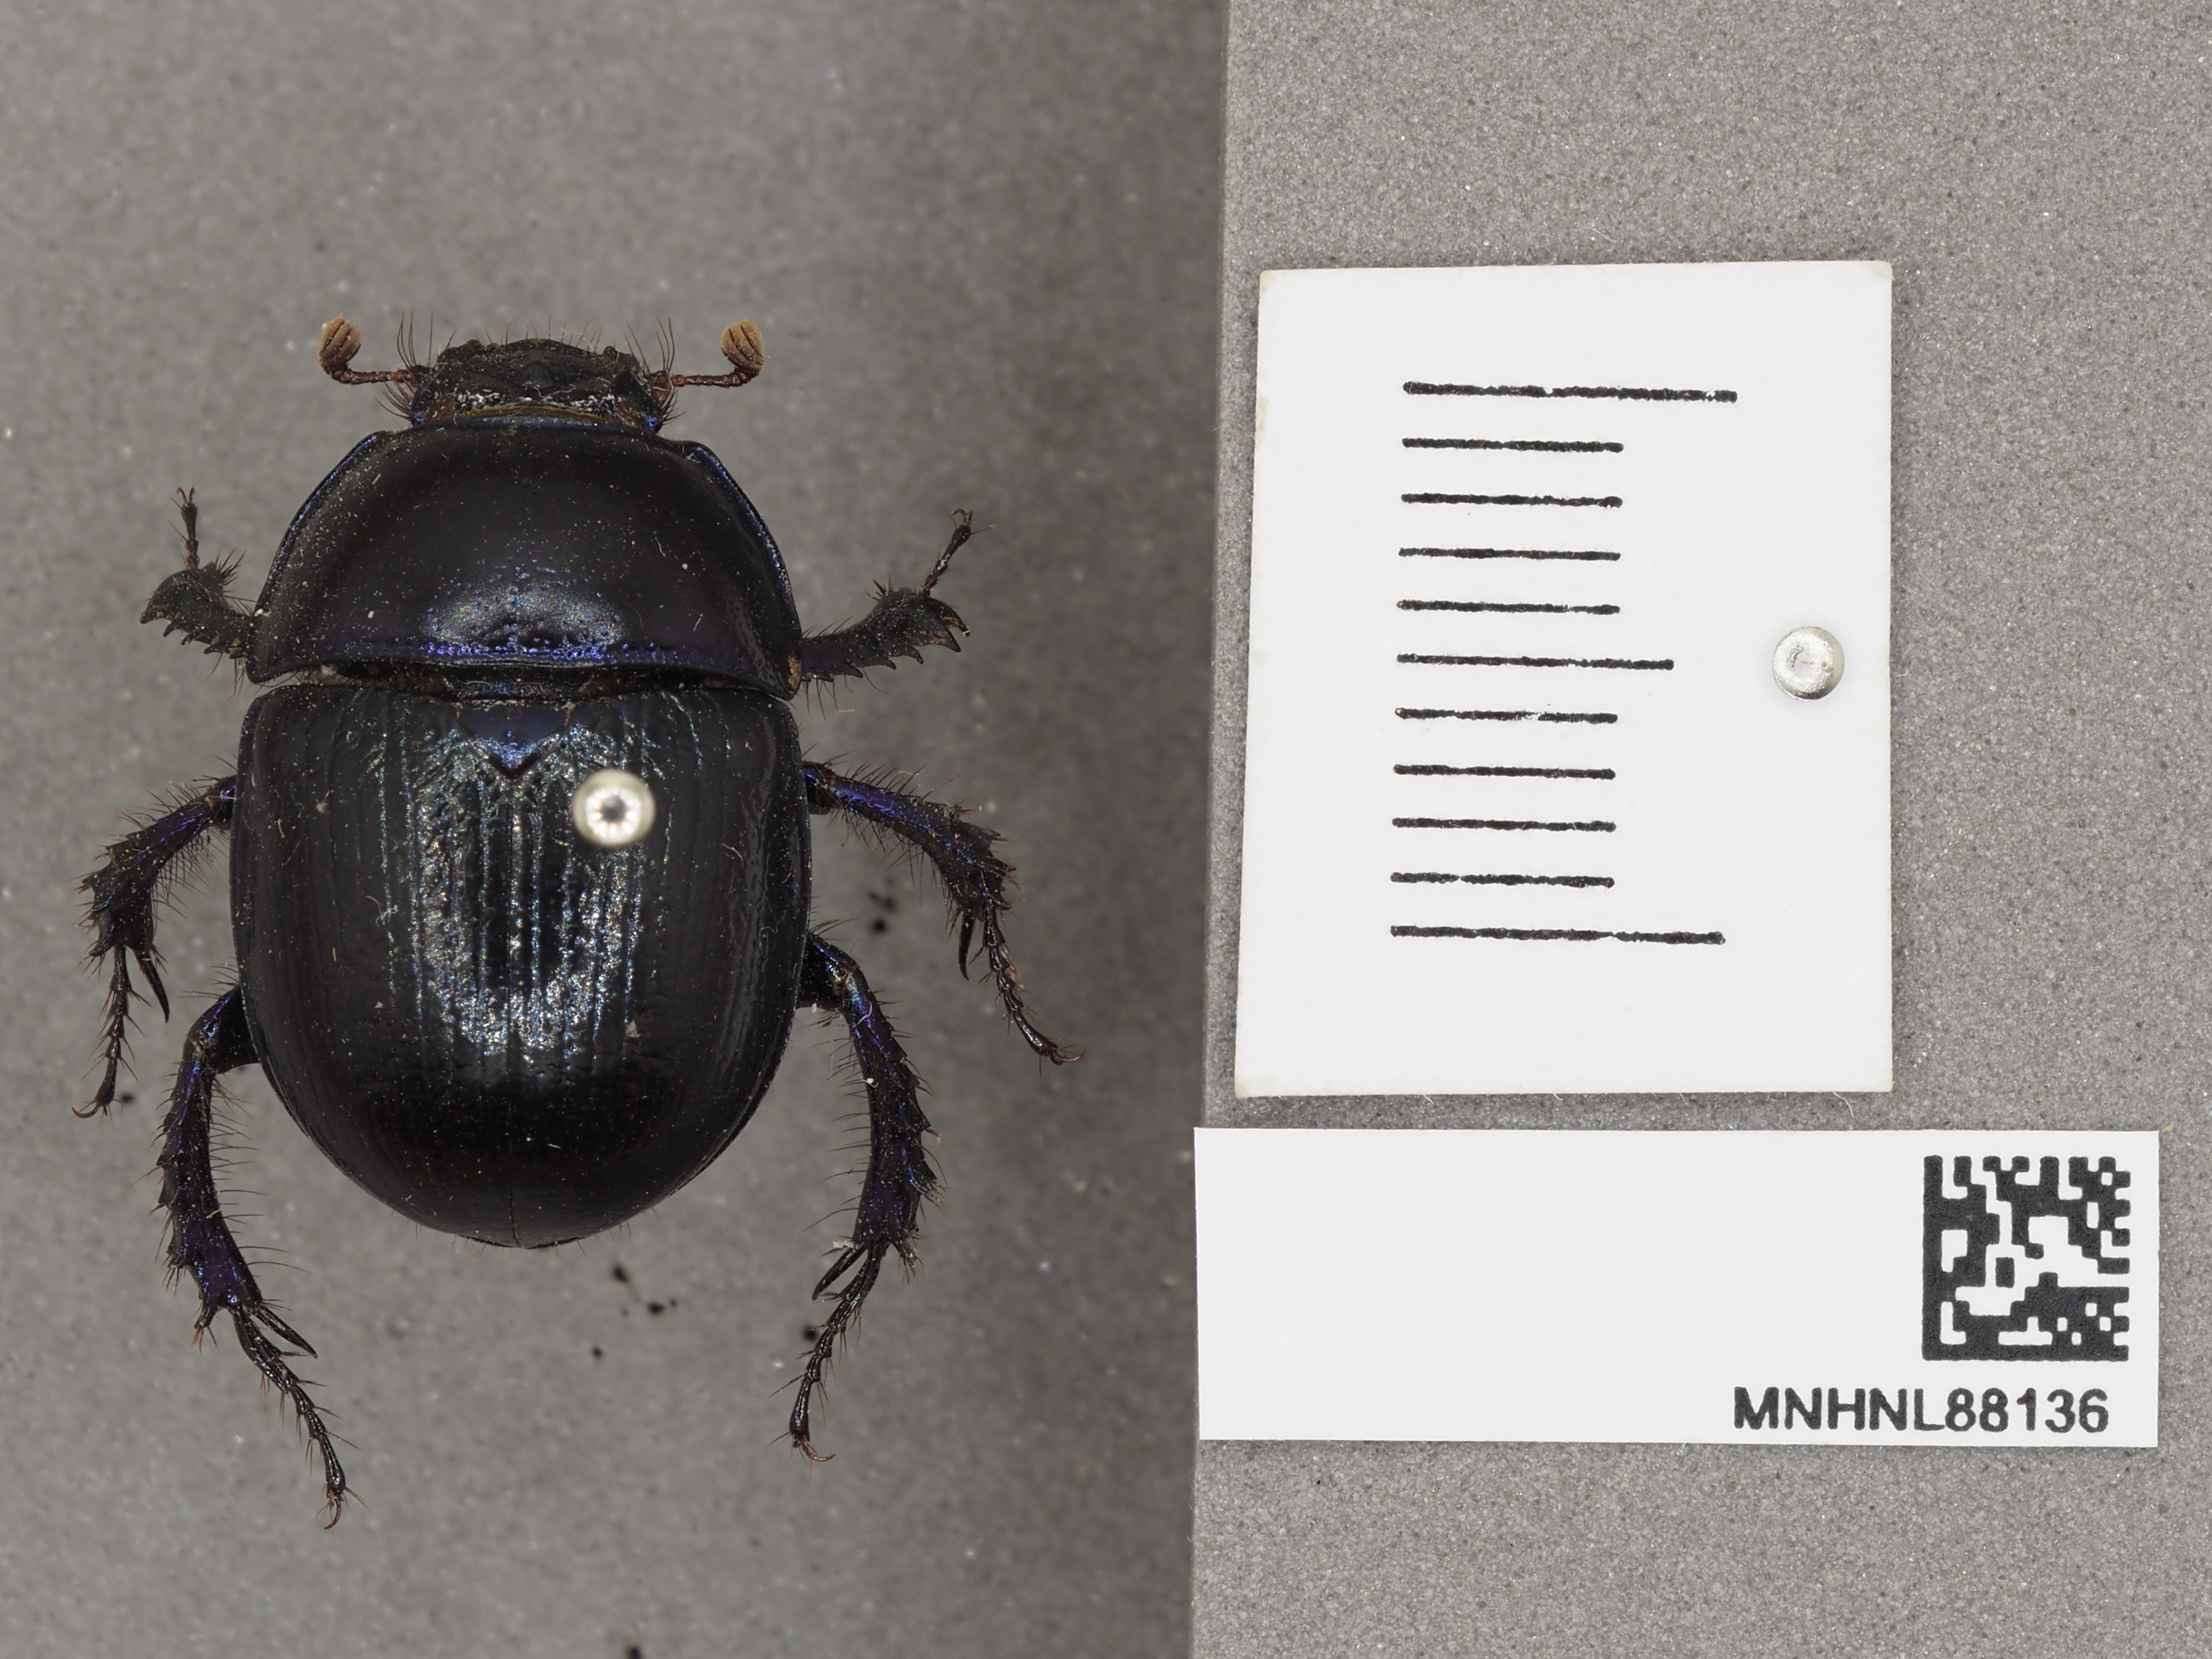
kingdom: Animalia
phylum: Arthropoda
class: Insecta
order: Coleoptera
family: Geotrupidae
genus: Anoplotrupes
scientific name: Anoplotrupes stercorosus
